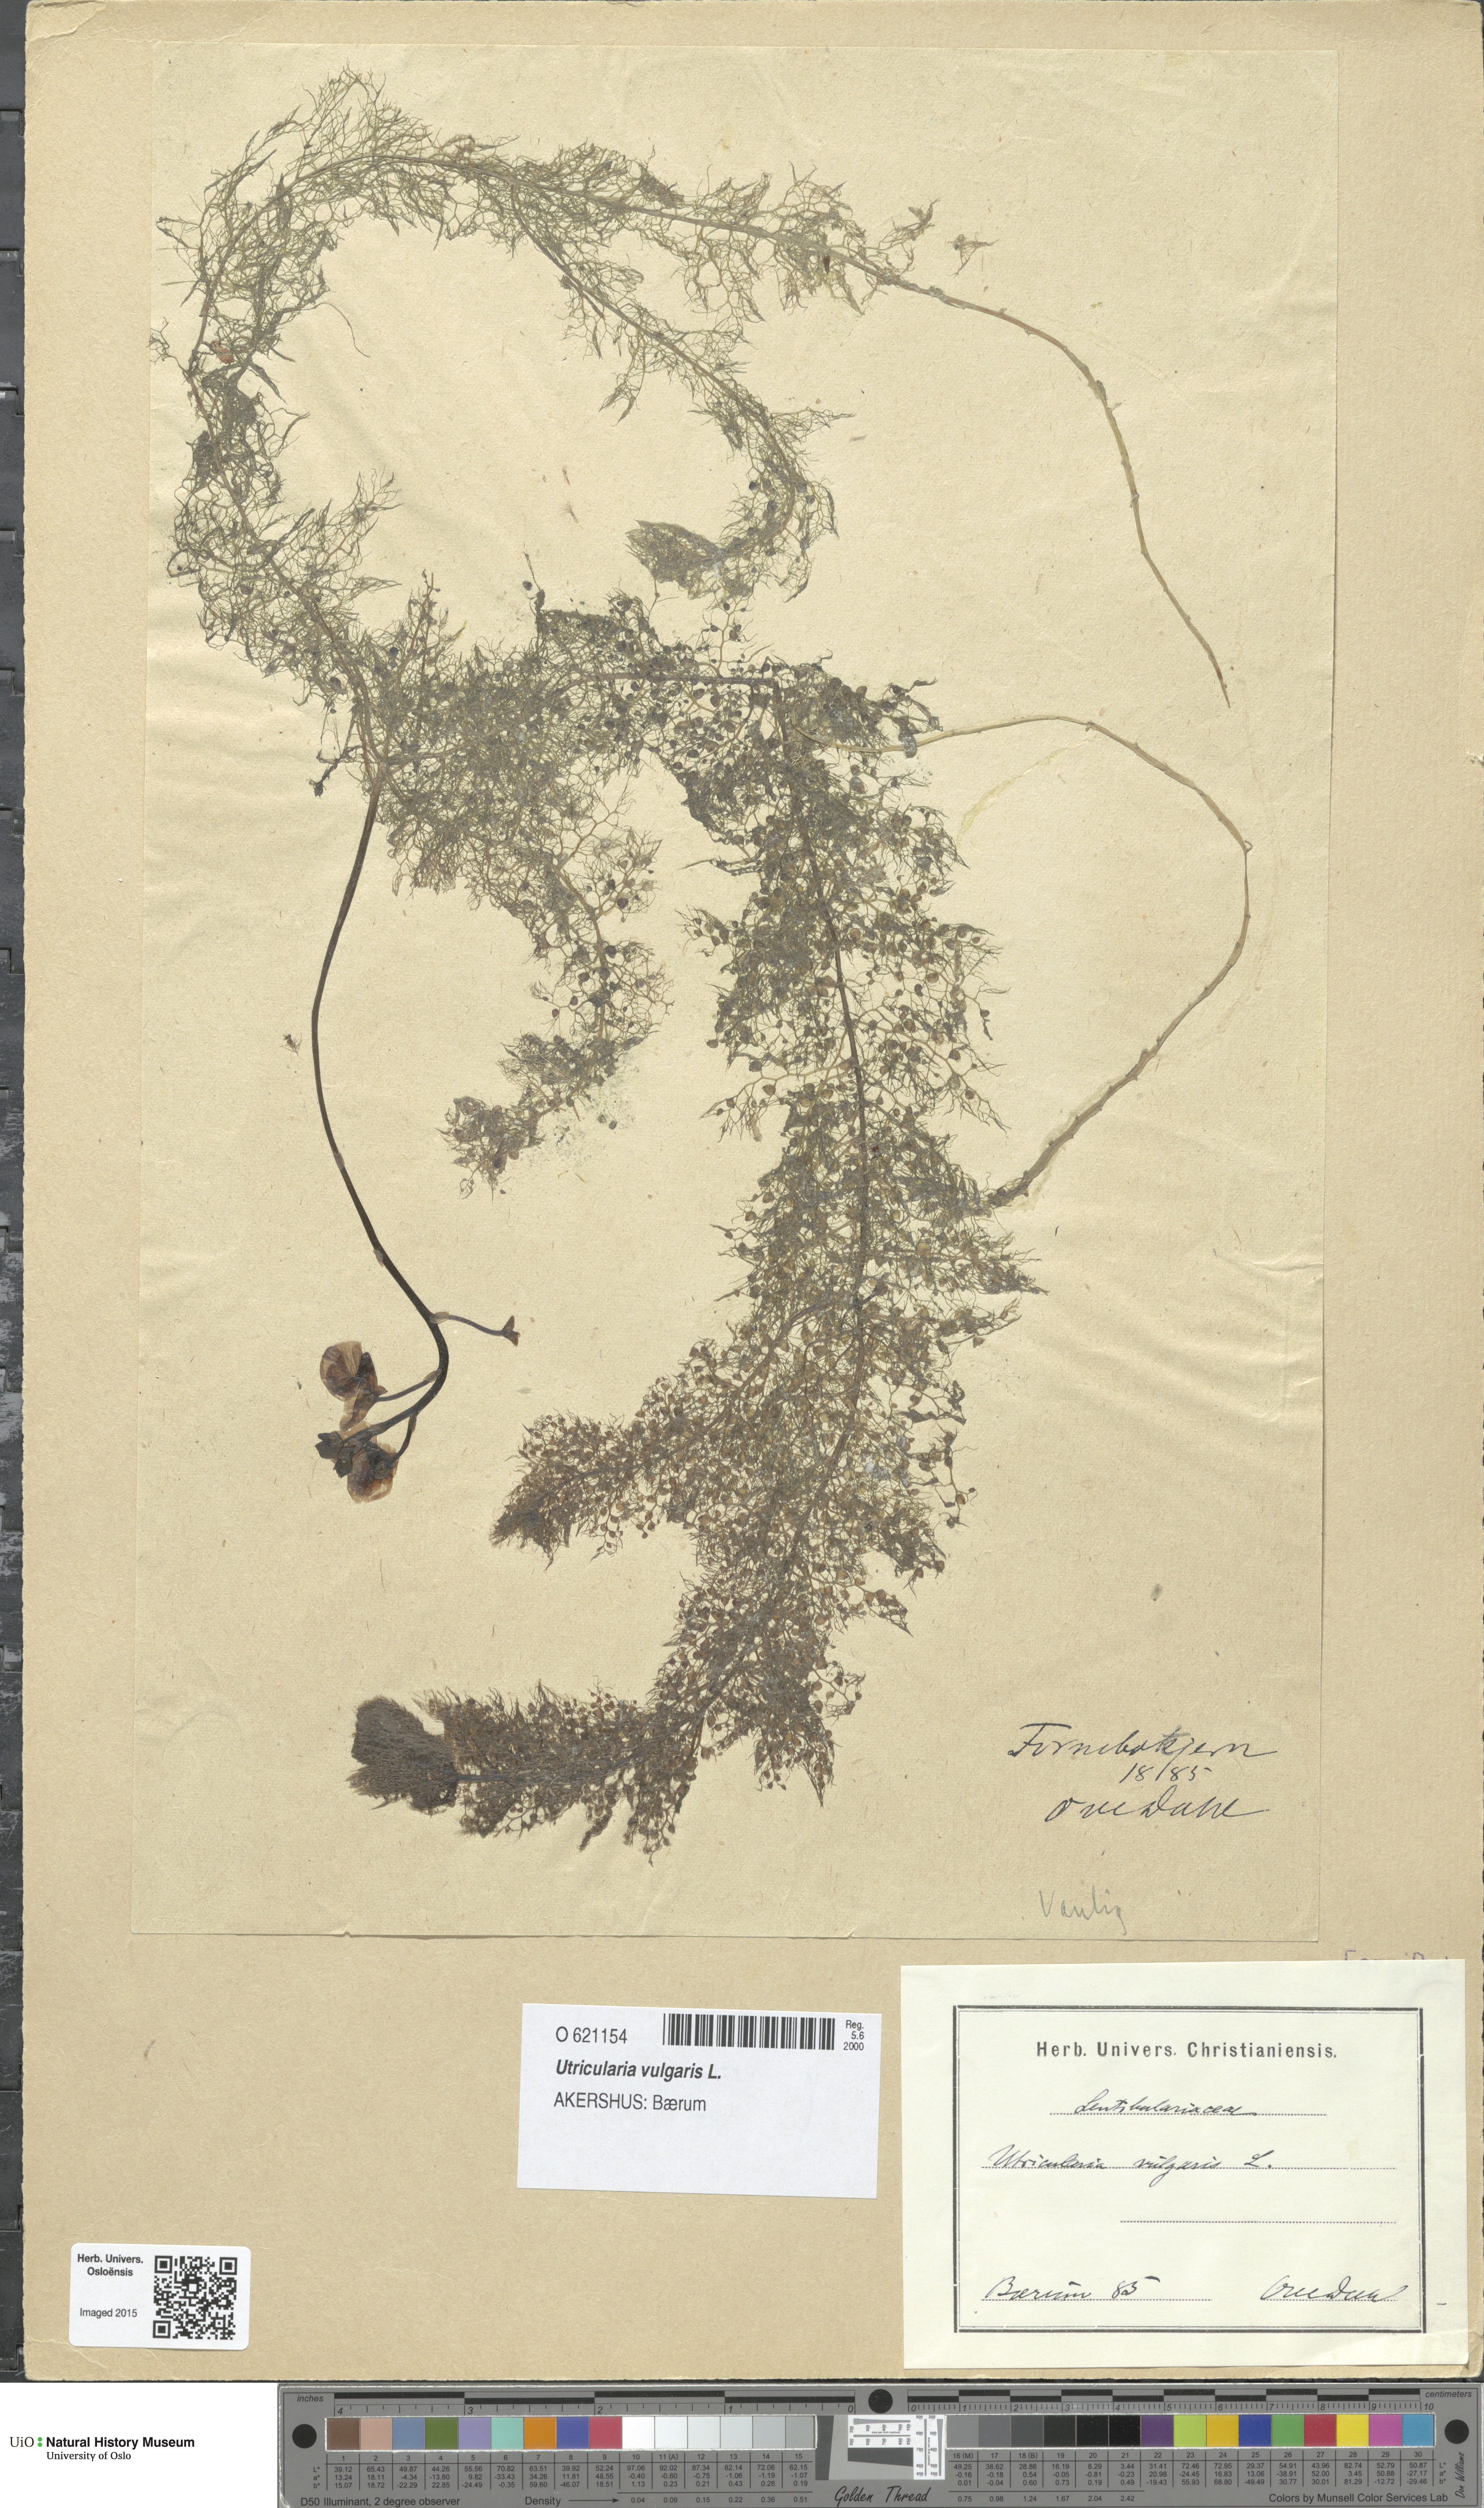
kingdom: Plantae
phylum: Tracheophyta
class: Magnoliopsida
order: Lamiales
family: Lentibulariaceae
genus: Utricularia
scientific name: Utricularia vulgaris
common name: Greater bladderwort
